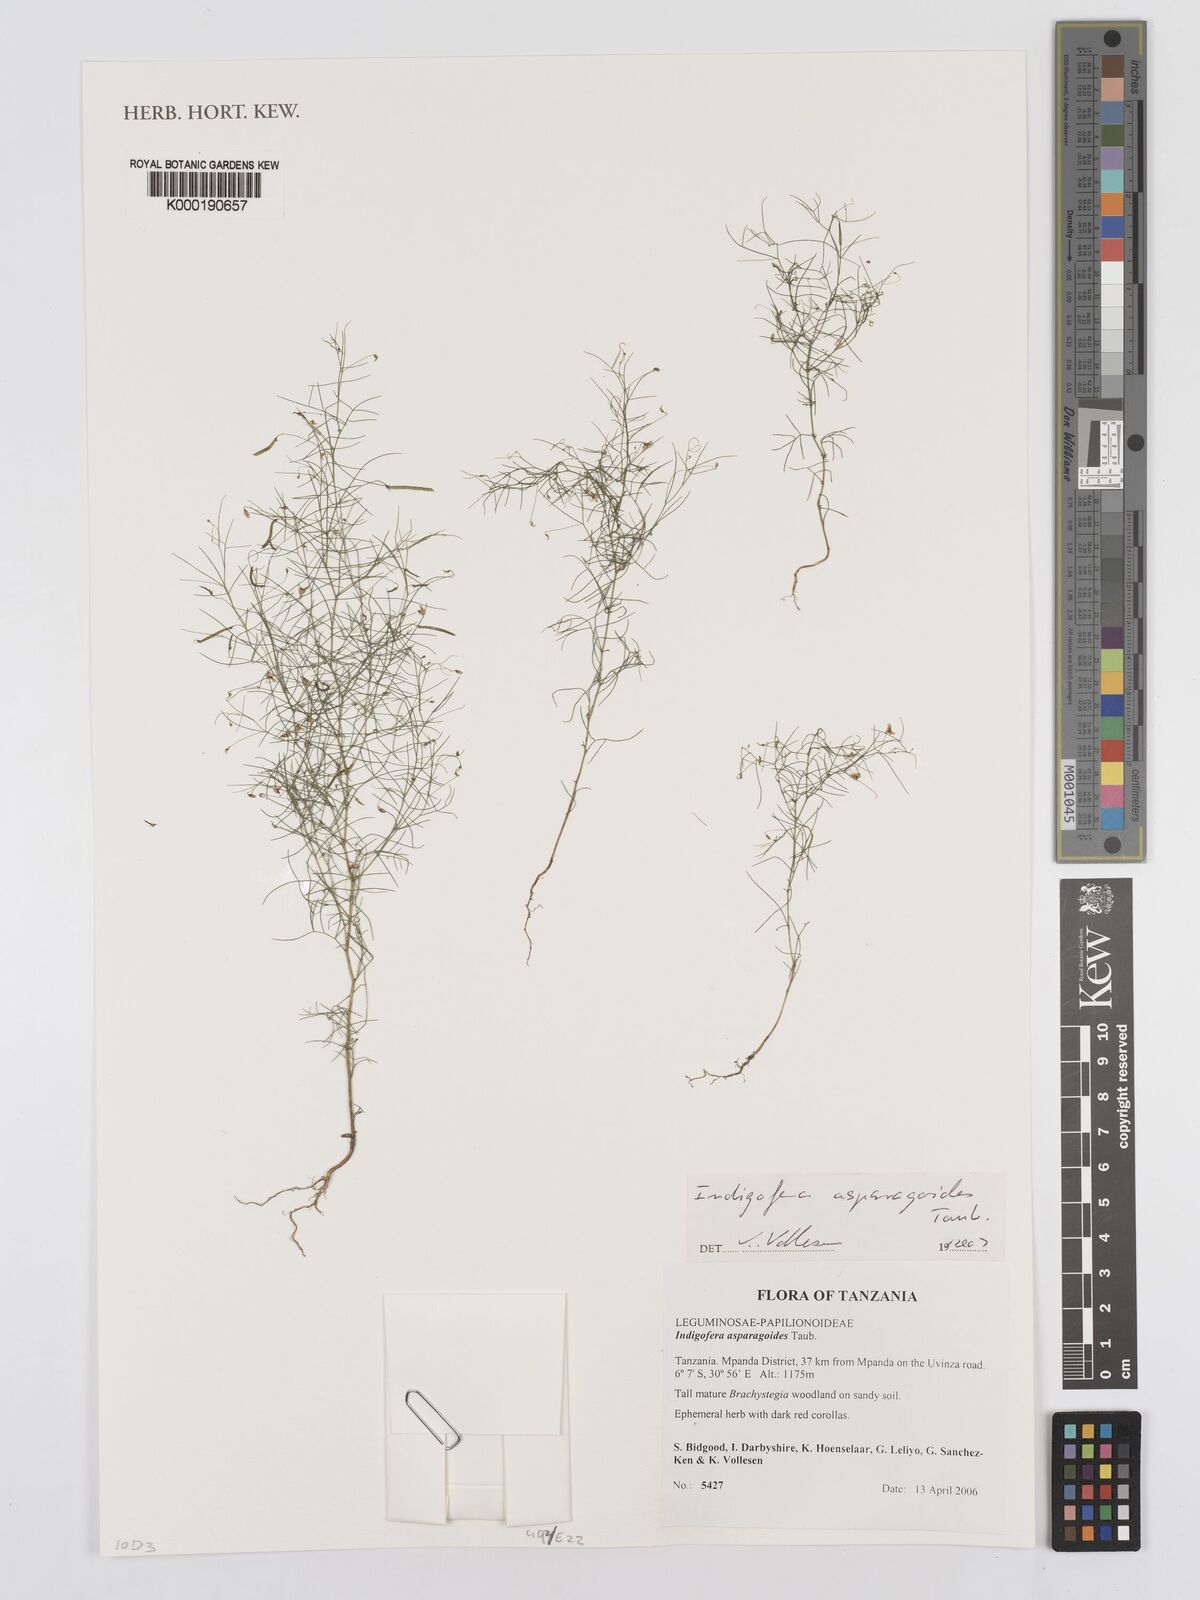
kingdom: Plantae
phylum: Tracheophyta
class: Magnoliopsida
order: Fabales
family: Fabaceae
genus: Microcharis
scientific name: Microcharis asparagoides
